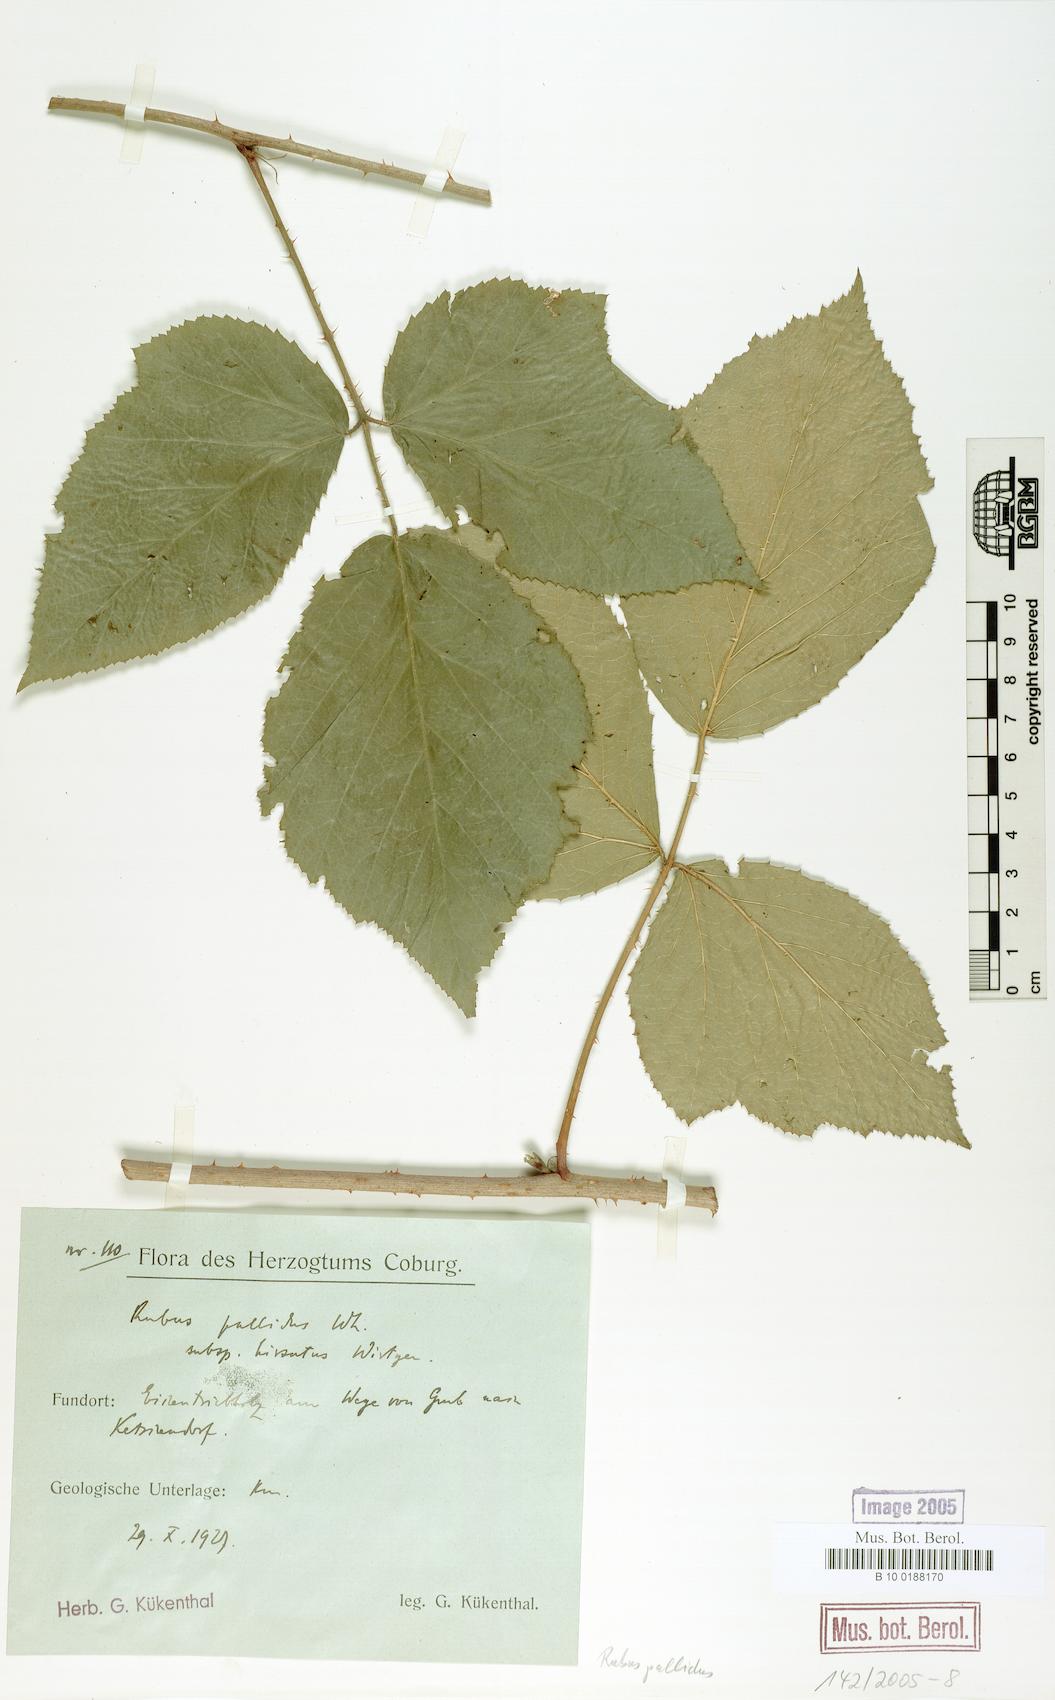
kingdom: Plantae
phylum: Tracheophyta
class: Magnoliopsida
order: Rosales
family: Rosaceae
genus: Rubus
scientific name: Rubus pallidus
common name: Pale bramble
